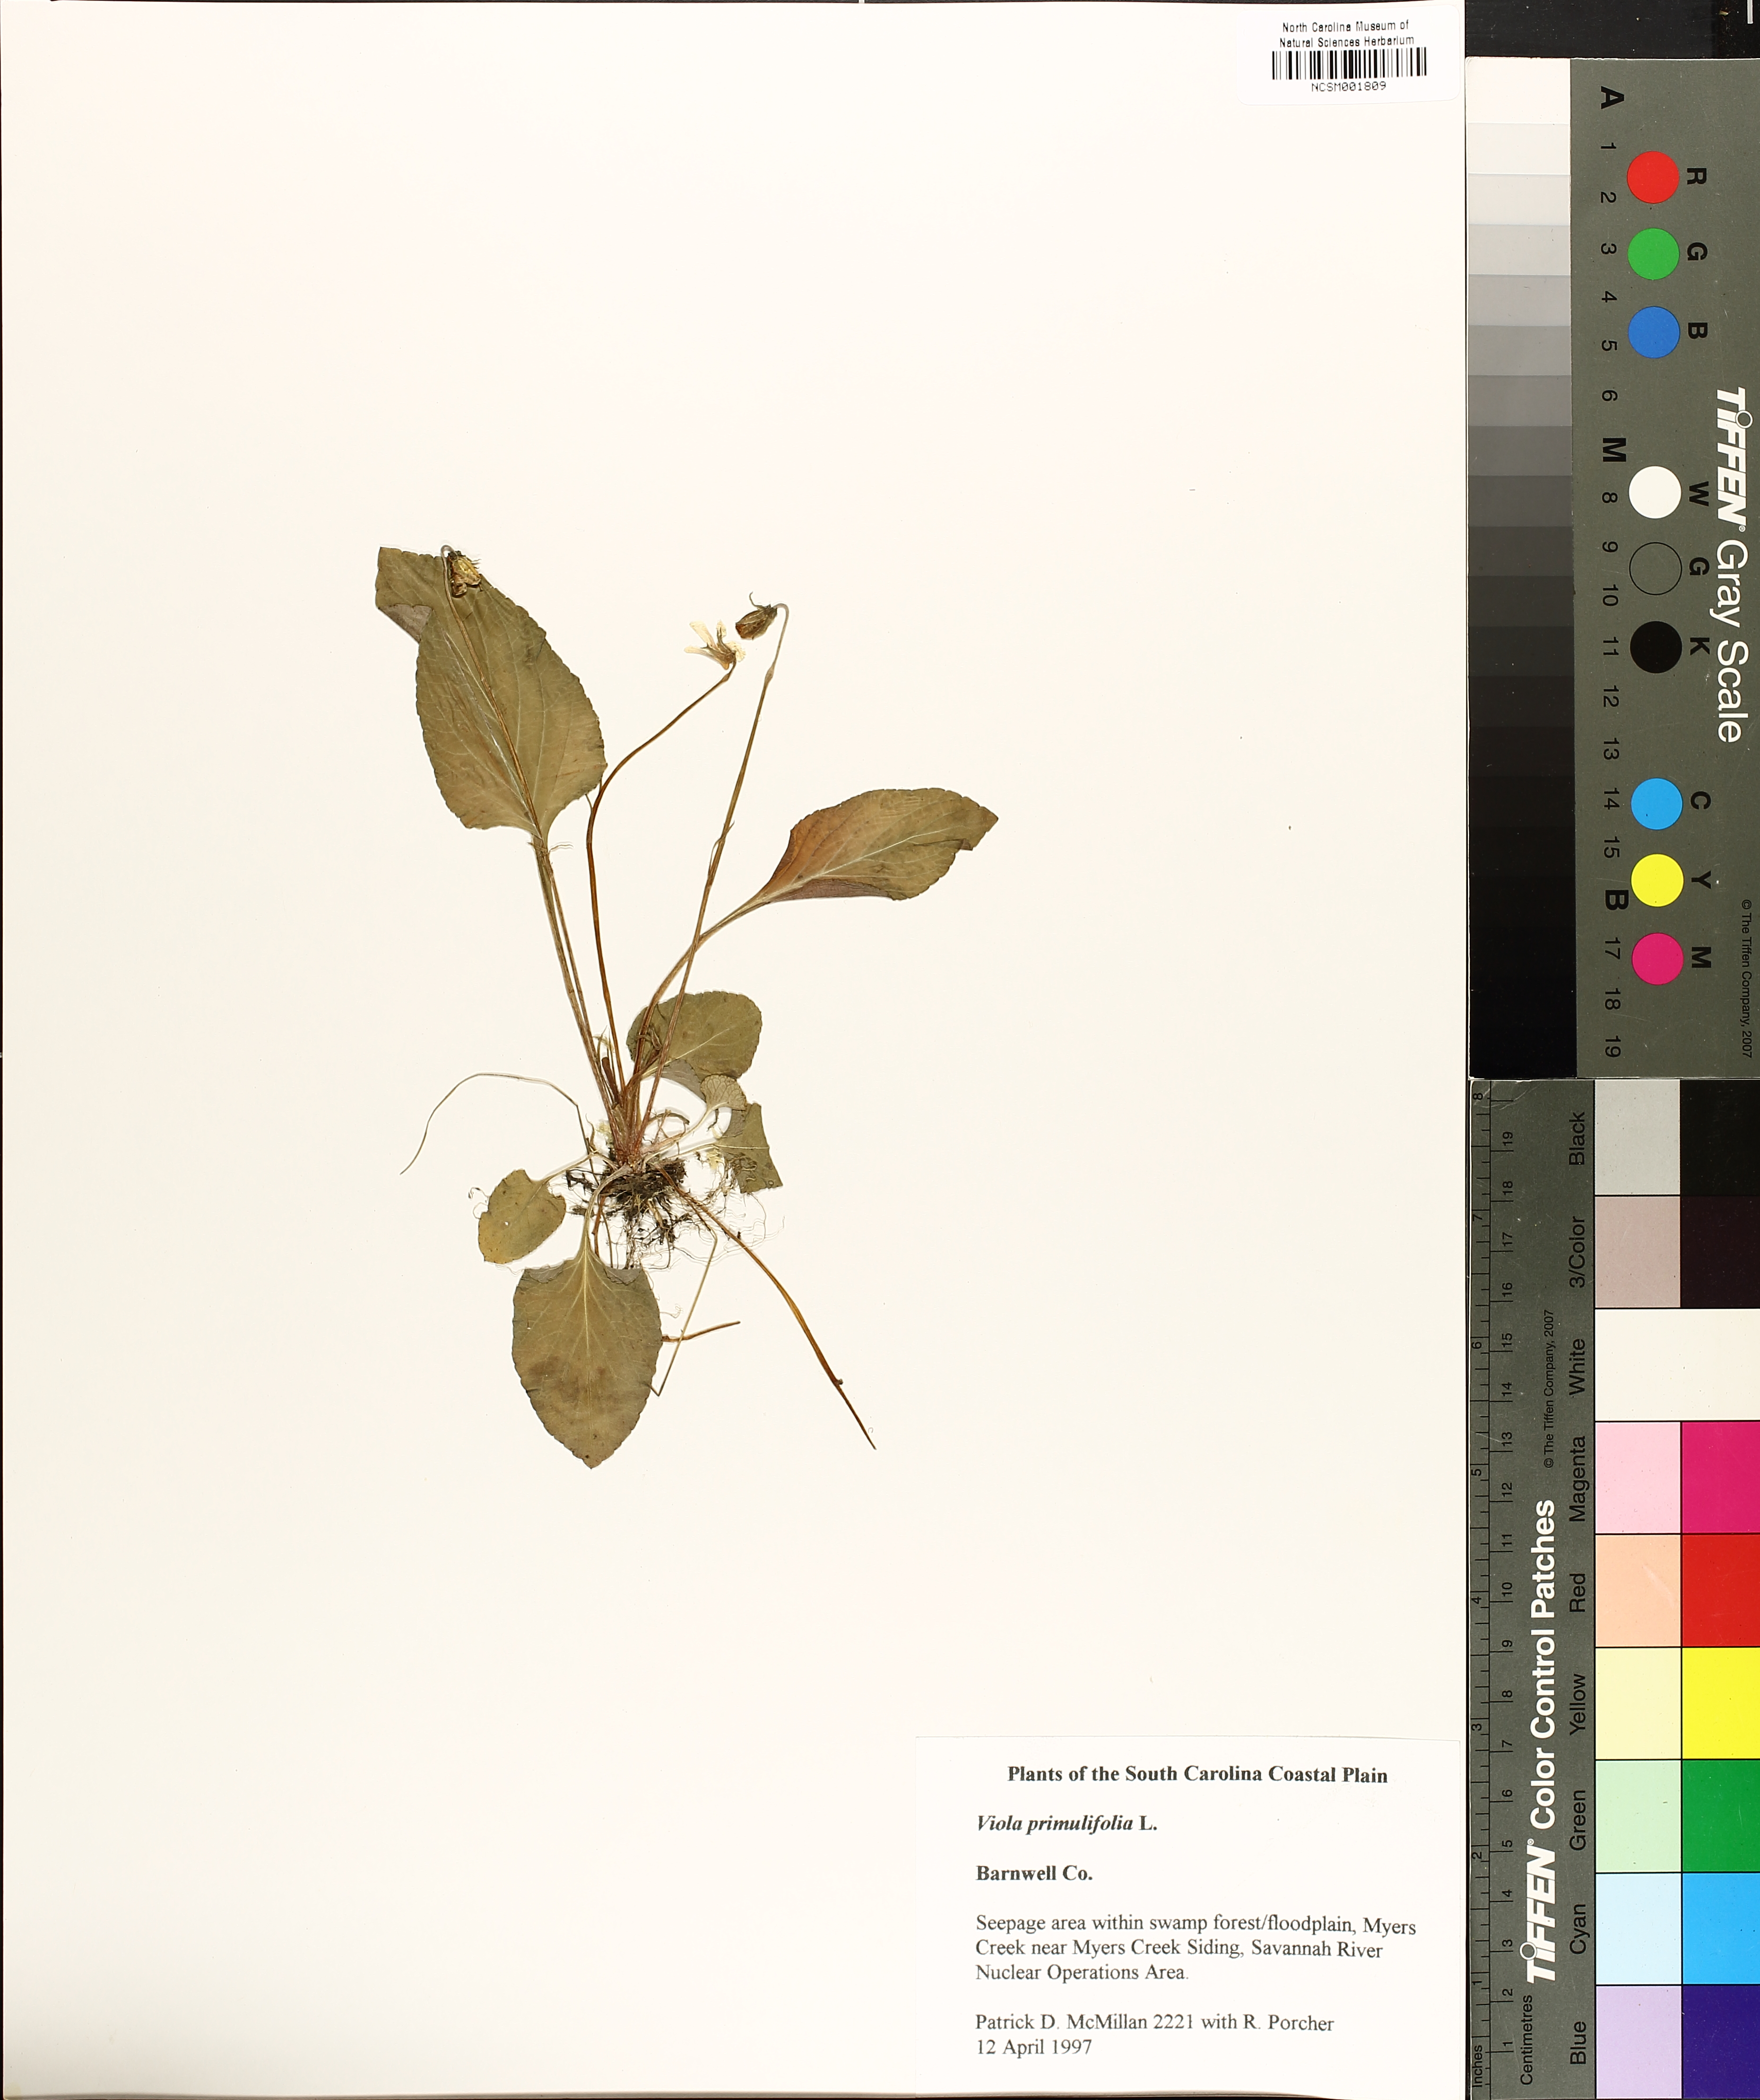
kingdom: Plantae
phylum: Tracheophyta
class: Magnoliopsida
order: Malpighiales
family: Violaceae
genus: Viola
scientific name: Viola primulifolia
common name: Primrose-leaf violet
